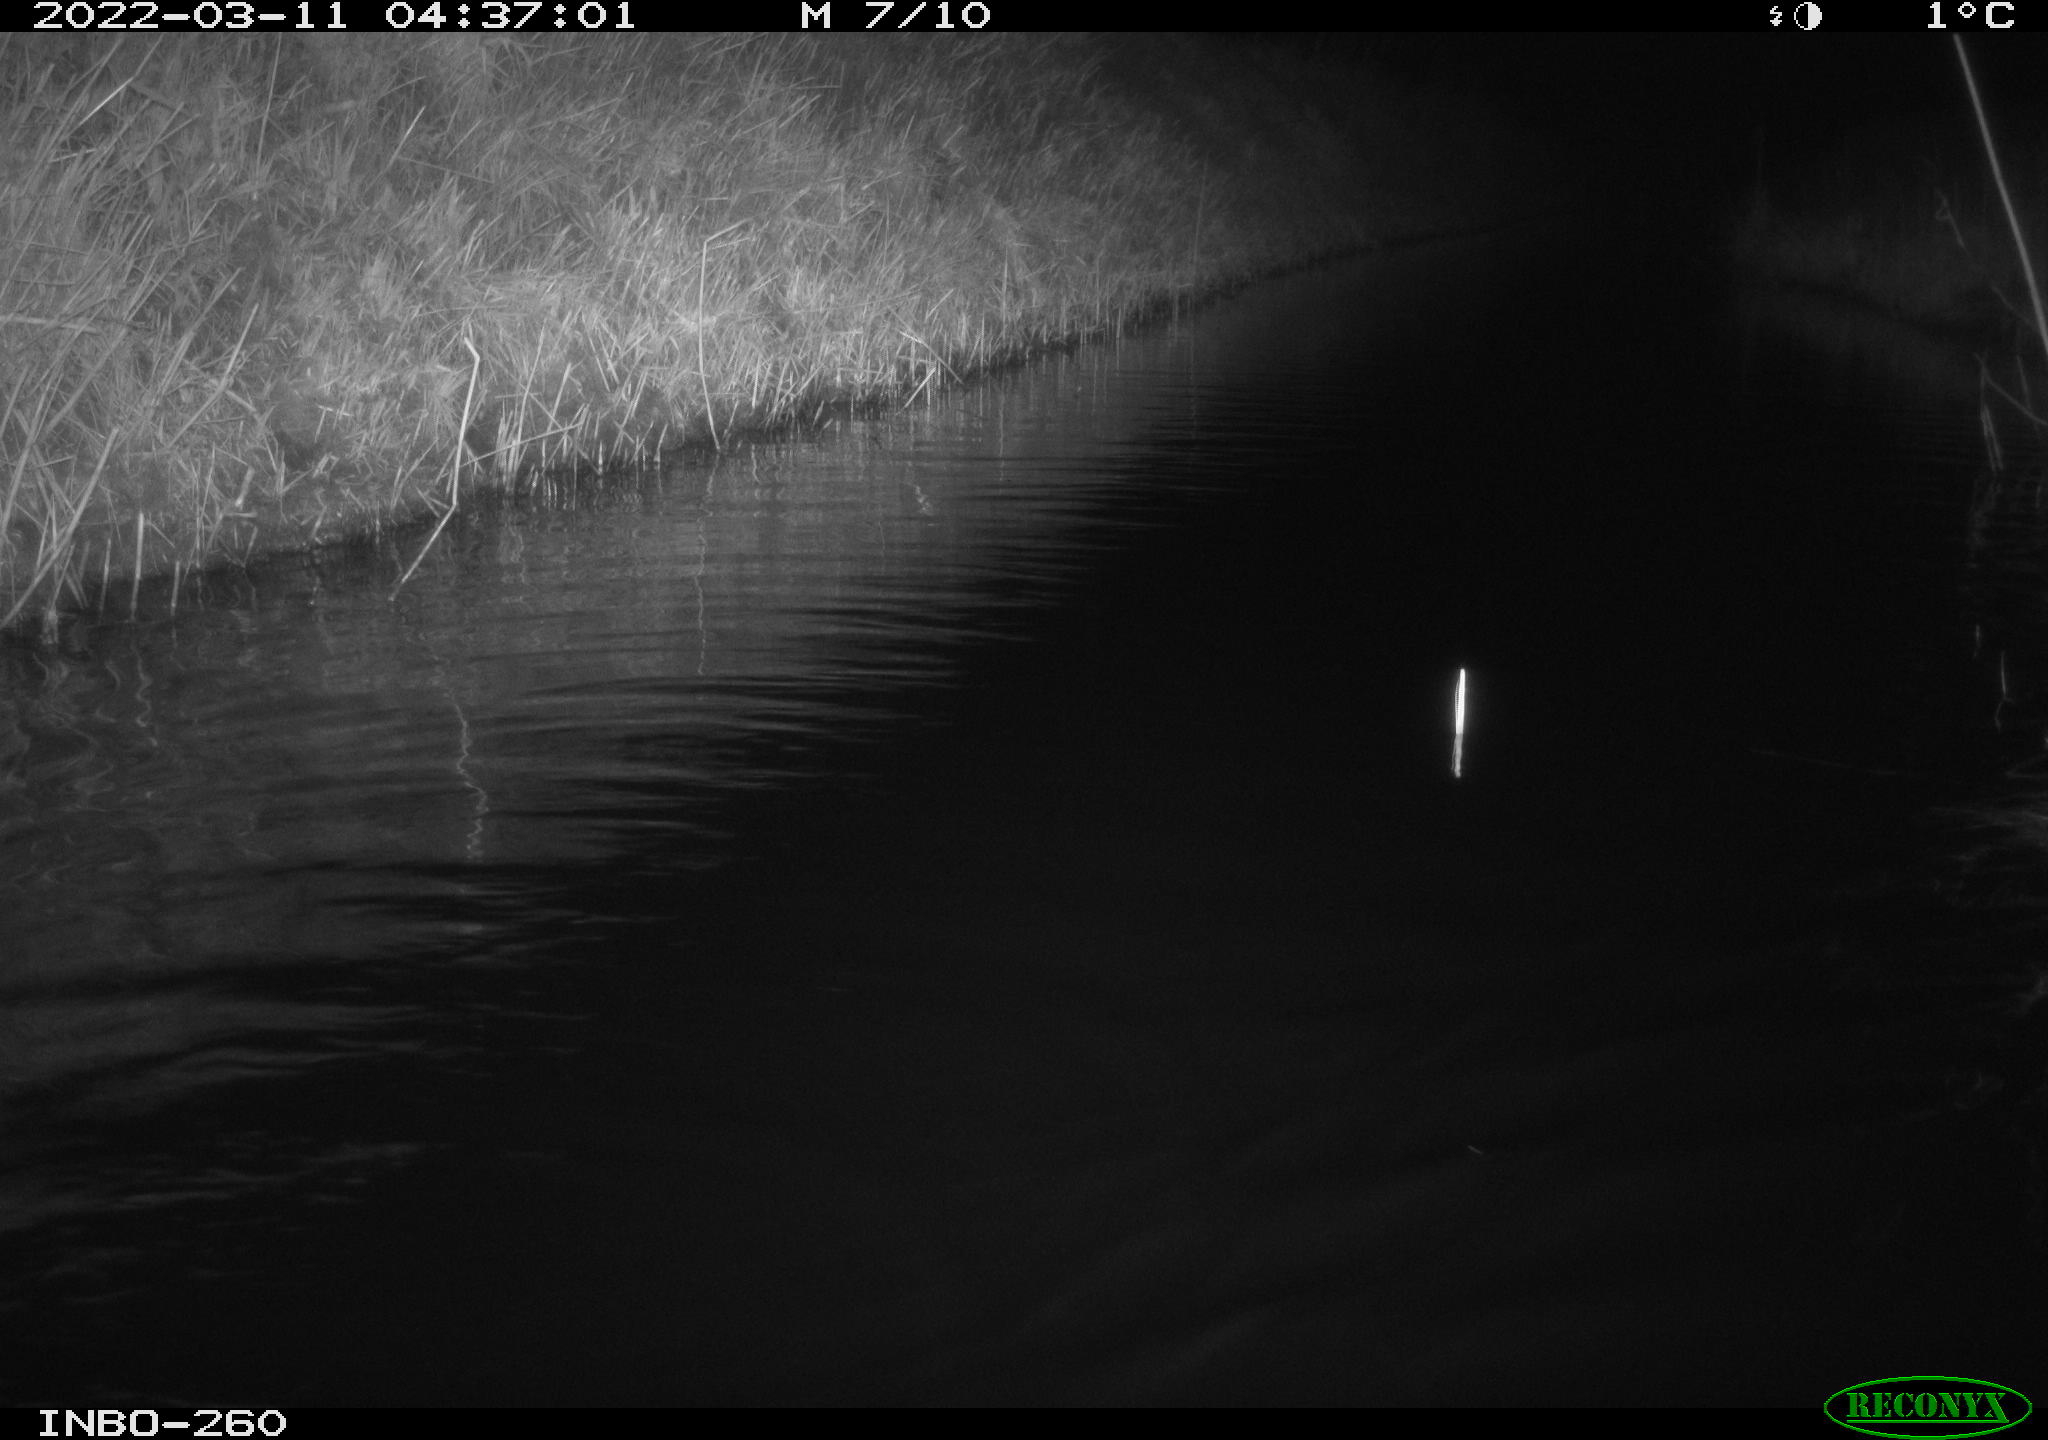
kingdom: Animalia
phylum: Chordata
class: Mammalia
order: Rodentia
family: Cricetidae
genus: Ondatra
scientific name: Ondatra zibethicus
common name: Muskrat
